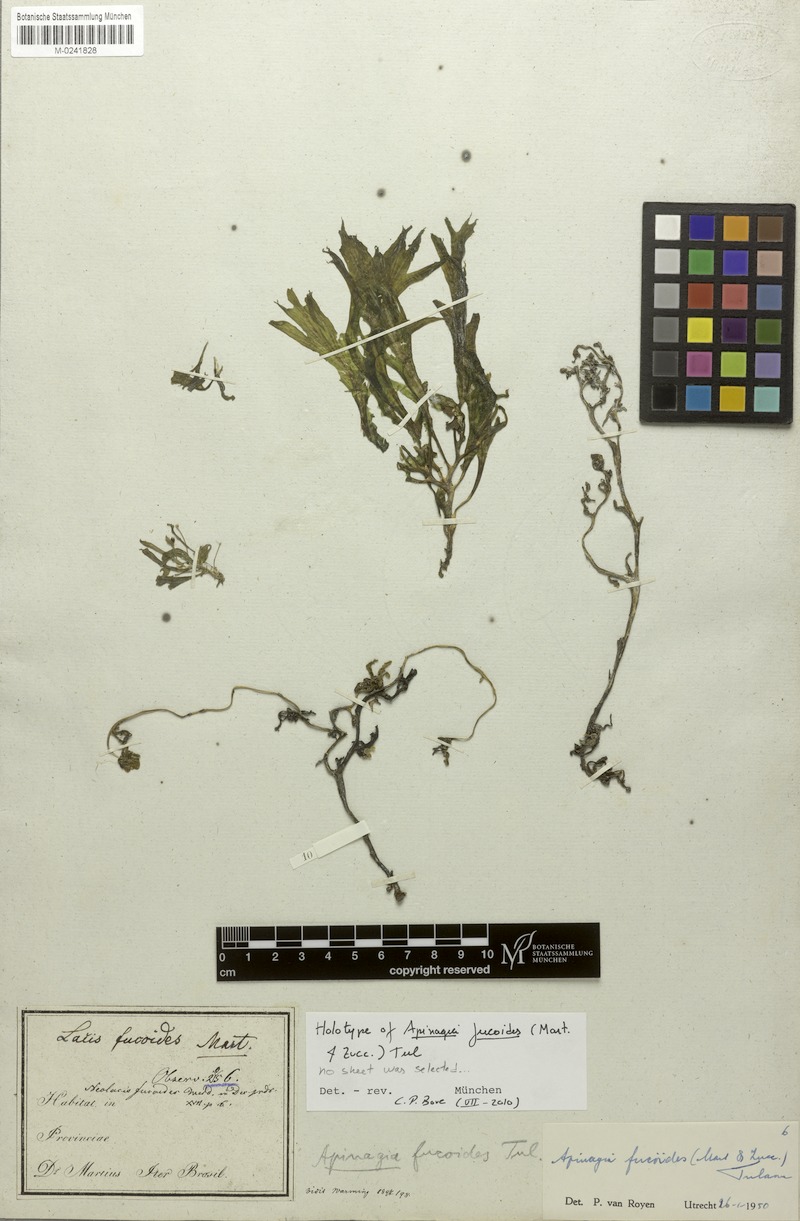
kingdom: Plantae
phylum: Tracheophyta
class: Magnoliopsida
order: Malpighiales
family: Podostemaceae
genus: Apinagia
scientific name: Apinagia fucoides
